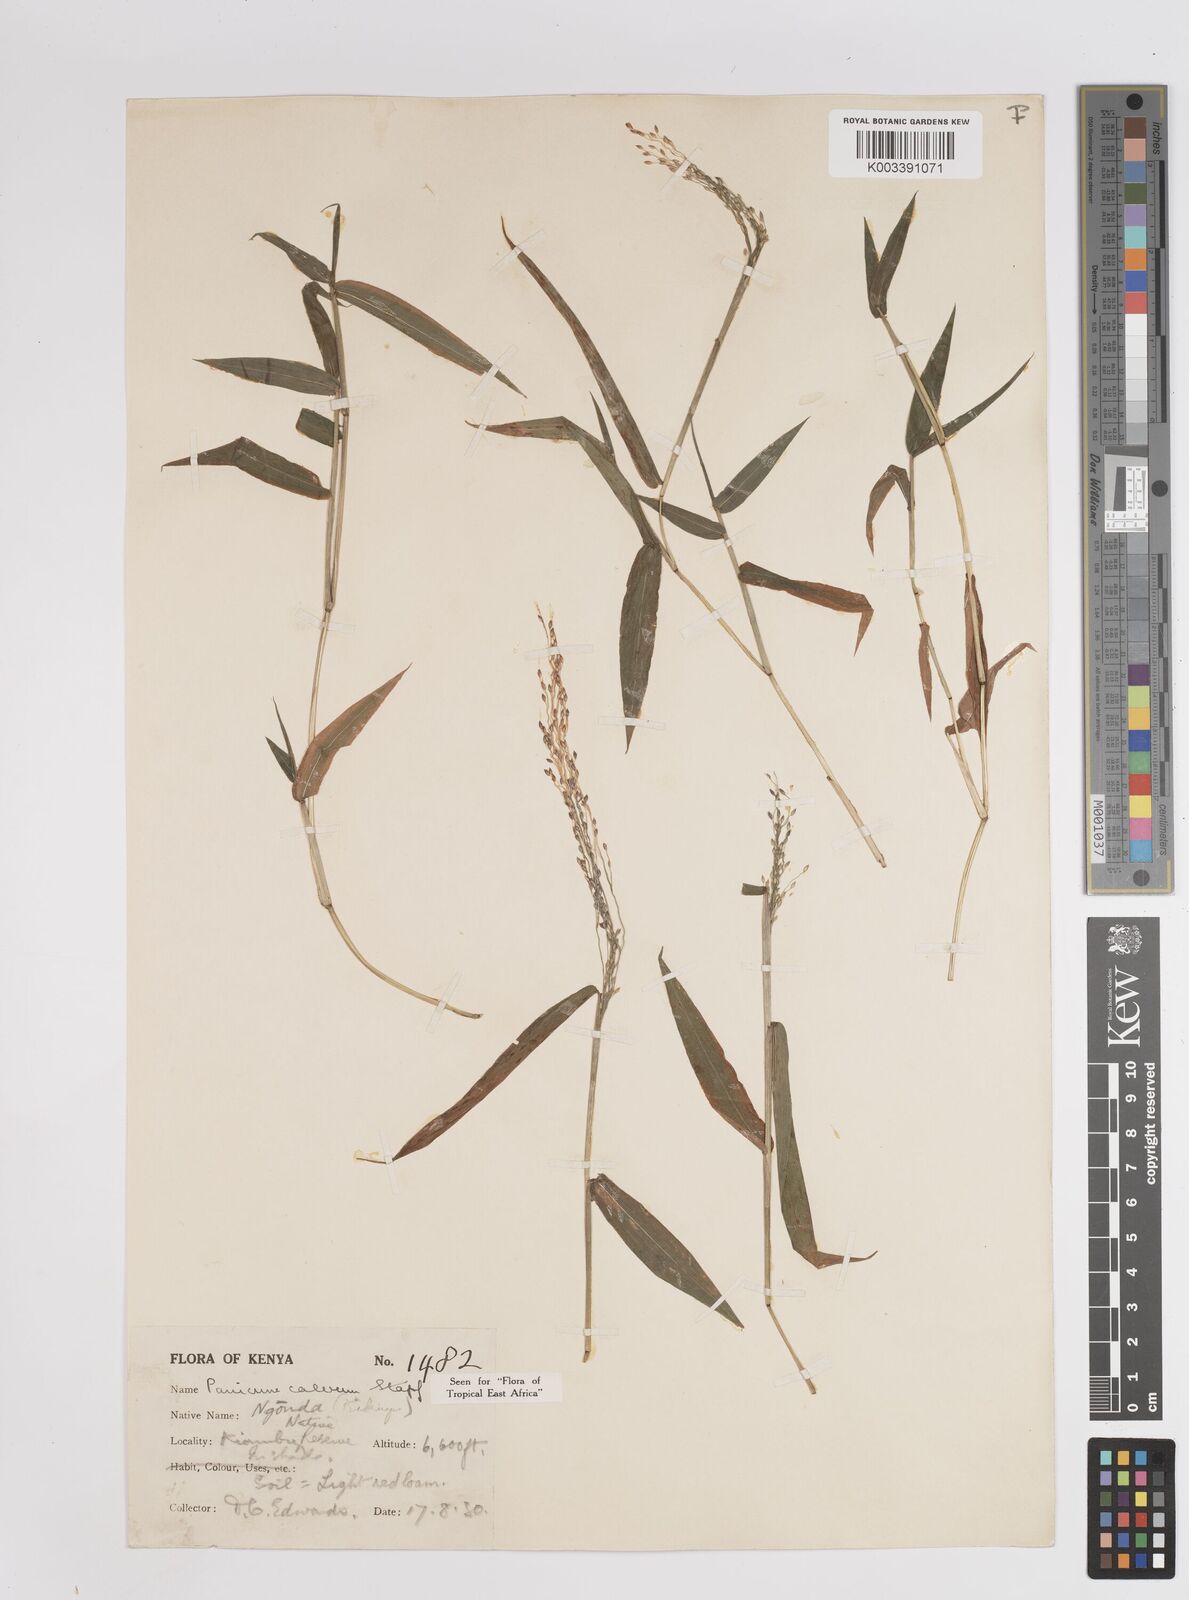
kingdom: Plantae
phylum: Tracheophyta
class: Liliopsida
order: Poales
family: Poaceae
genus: Panicum
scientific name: Panicum calvum
